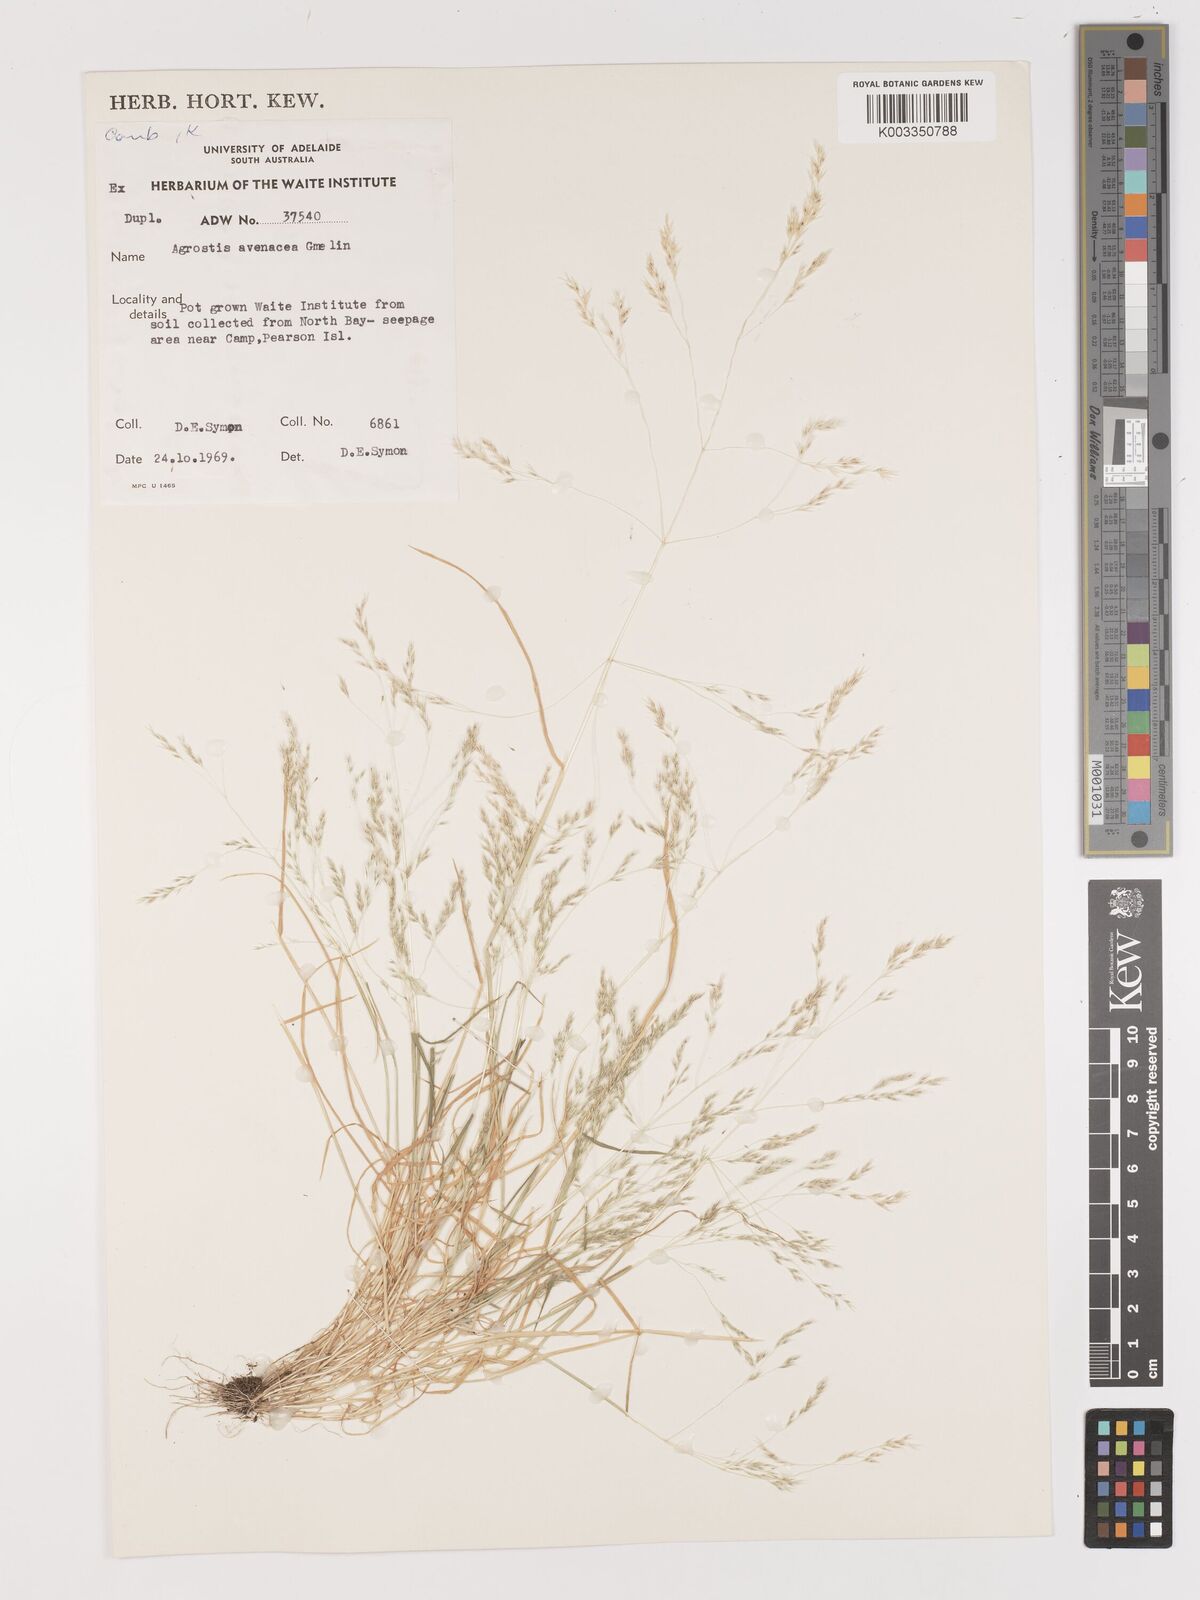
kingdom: Plantae
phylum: Tracheophyta
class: Liliopsida
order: Poales
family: Poaceae
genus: Lachnagrostis
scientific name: Lachnagrostis filiformis
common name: Bentgrass
